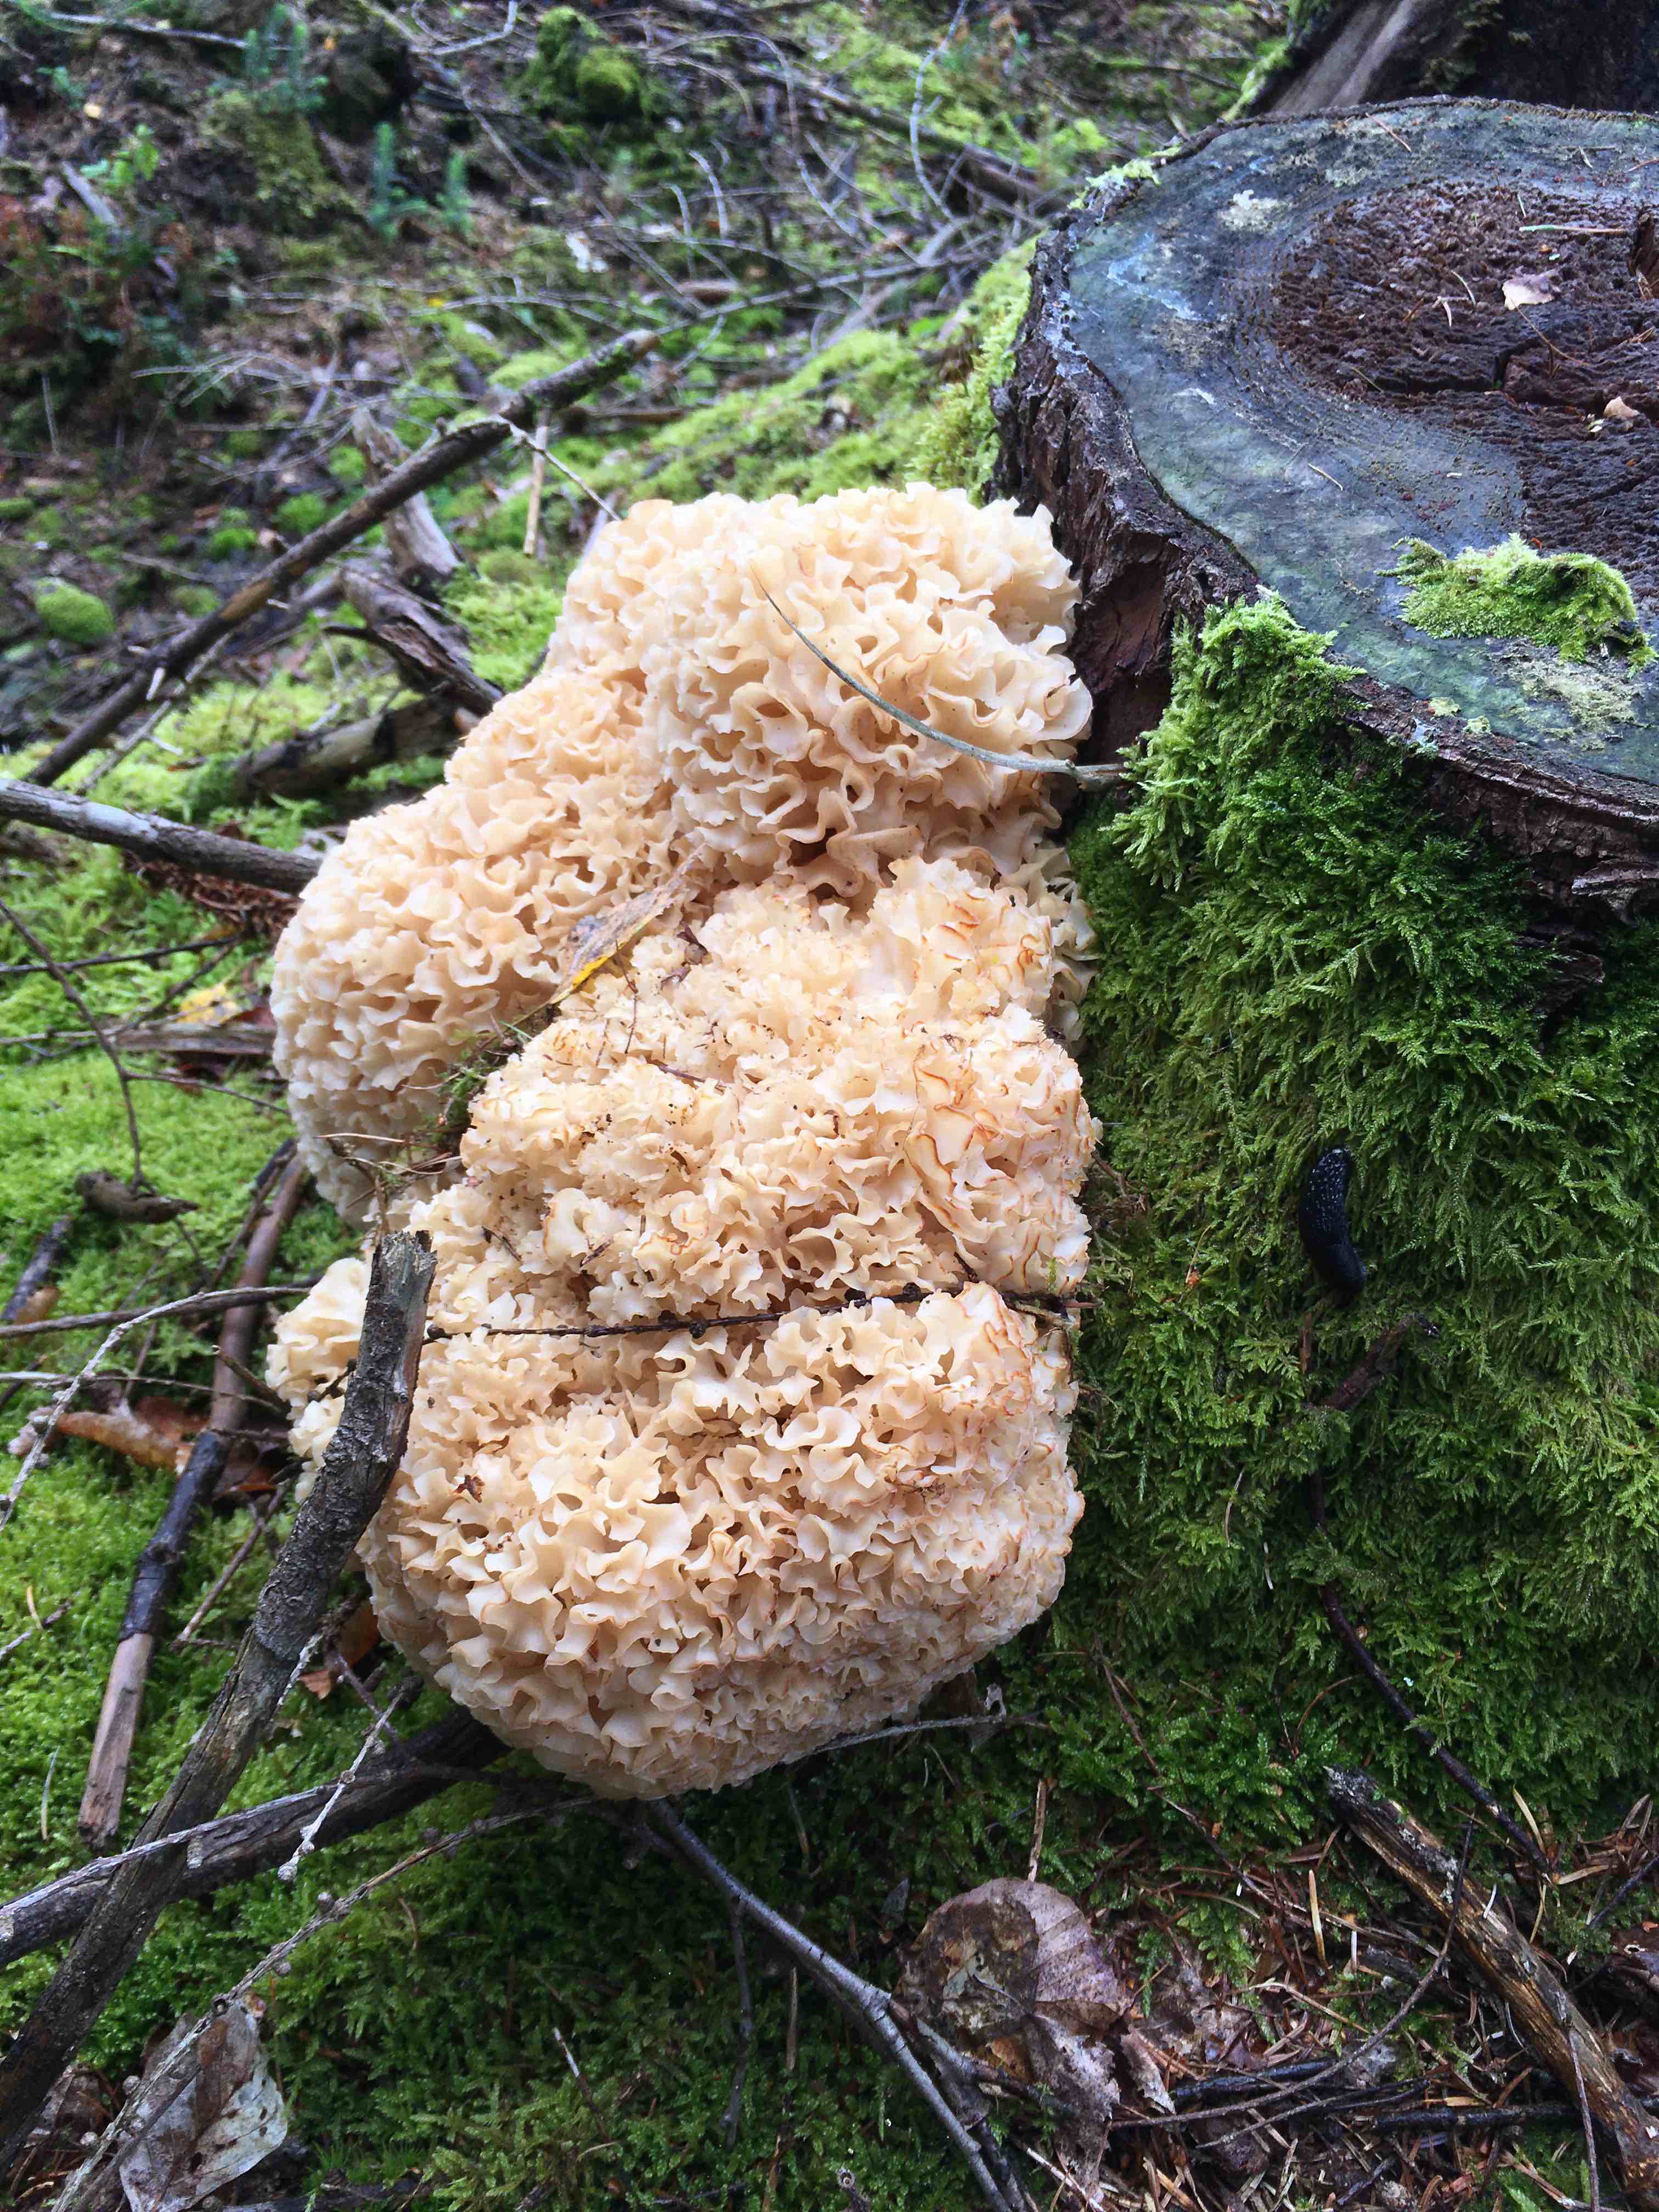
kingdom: Fungi
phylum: Basidiomycota
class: Agaricomycetes
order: Polyporales
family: Sparassidaceae
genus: Sparassis
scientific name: Sparassis crispa
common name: kruset blomkålssvamp
